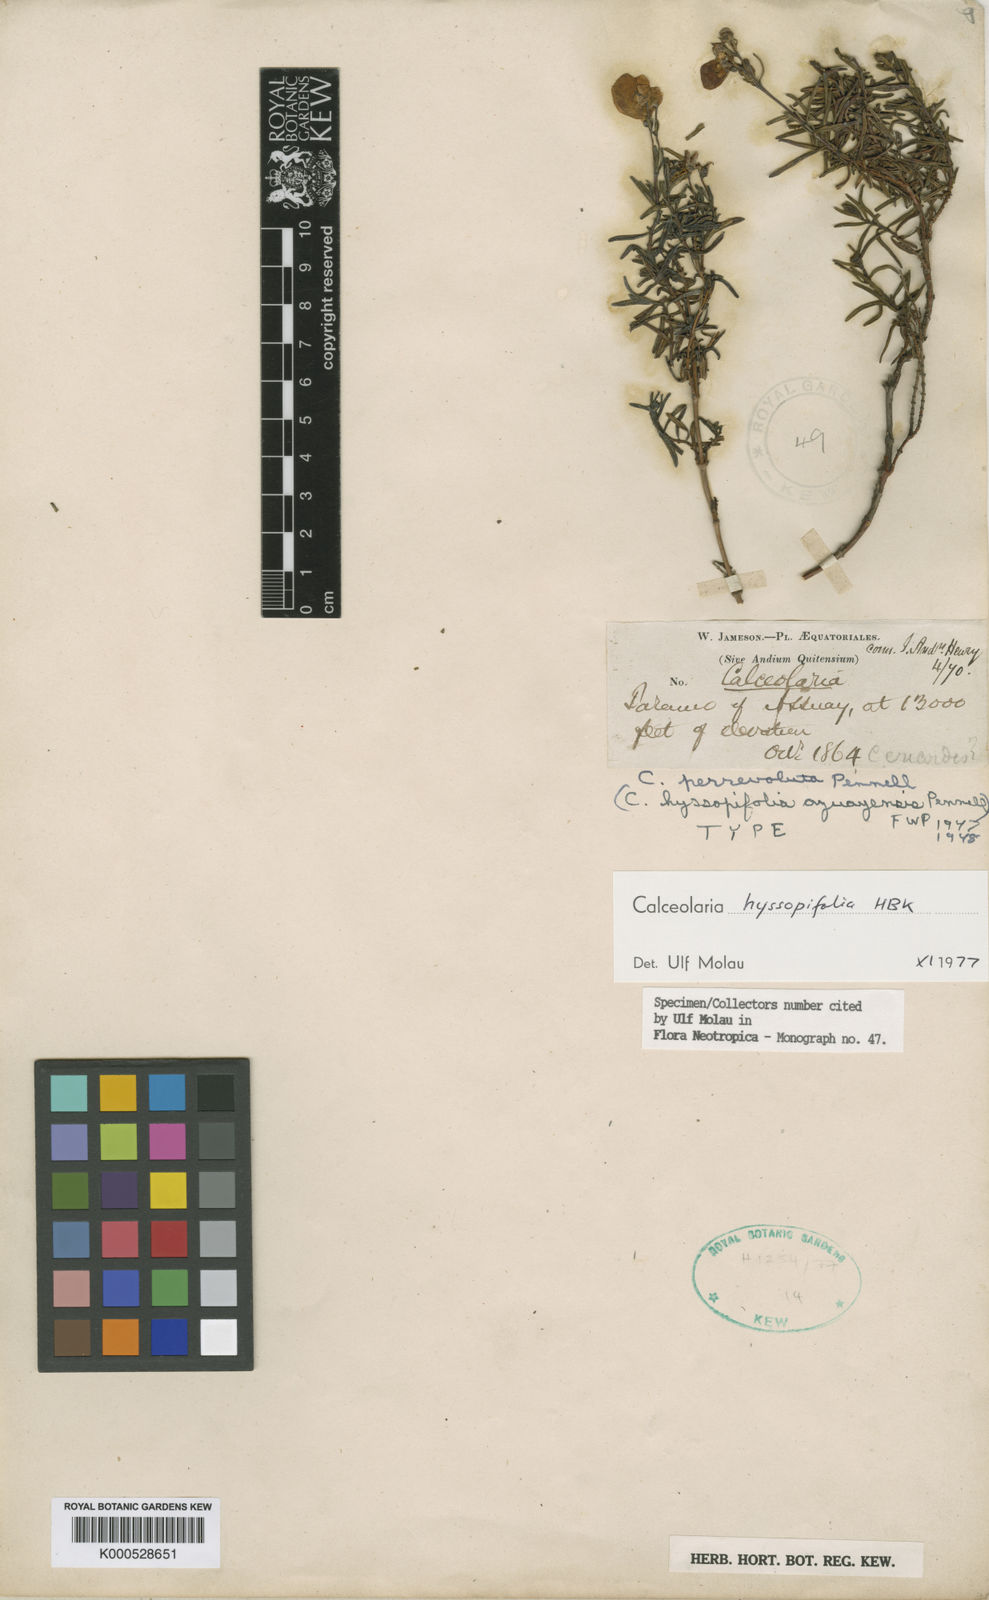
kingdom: Plantae
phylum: Tracheophyta
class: Magnoliopsida
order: Lamiales
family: Calceolariaceae
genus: Calceolaria
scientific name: Calceolaria hyssopifolia
